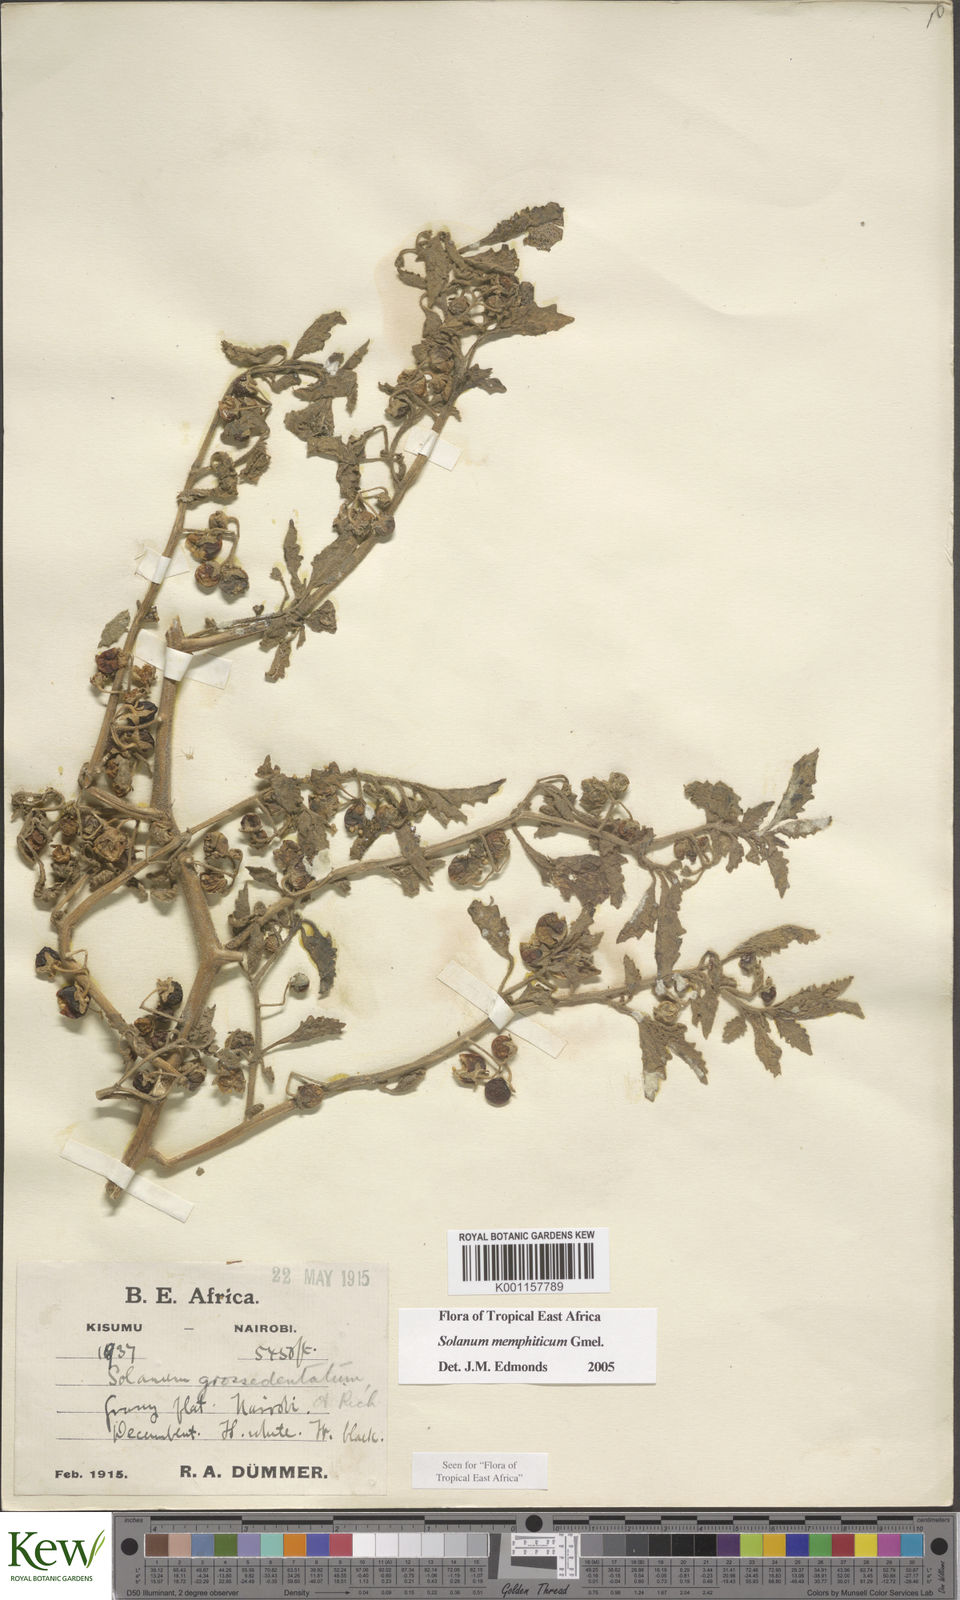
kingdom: Plantae
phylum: Tracheophyta
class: Magnoliopsida
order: Solanales
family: Solanaceae
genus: Solanum
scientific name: Solanum memphiticum
